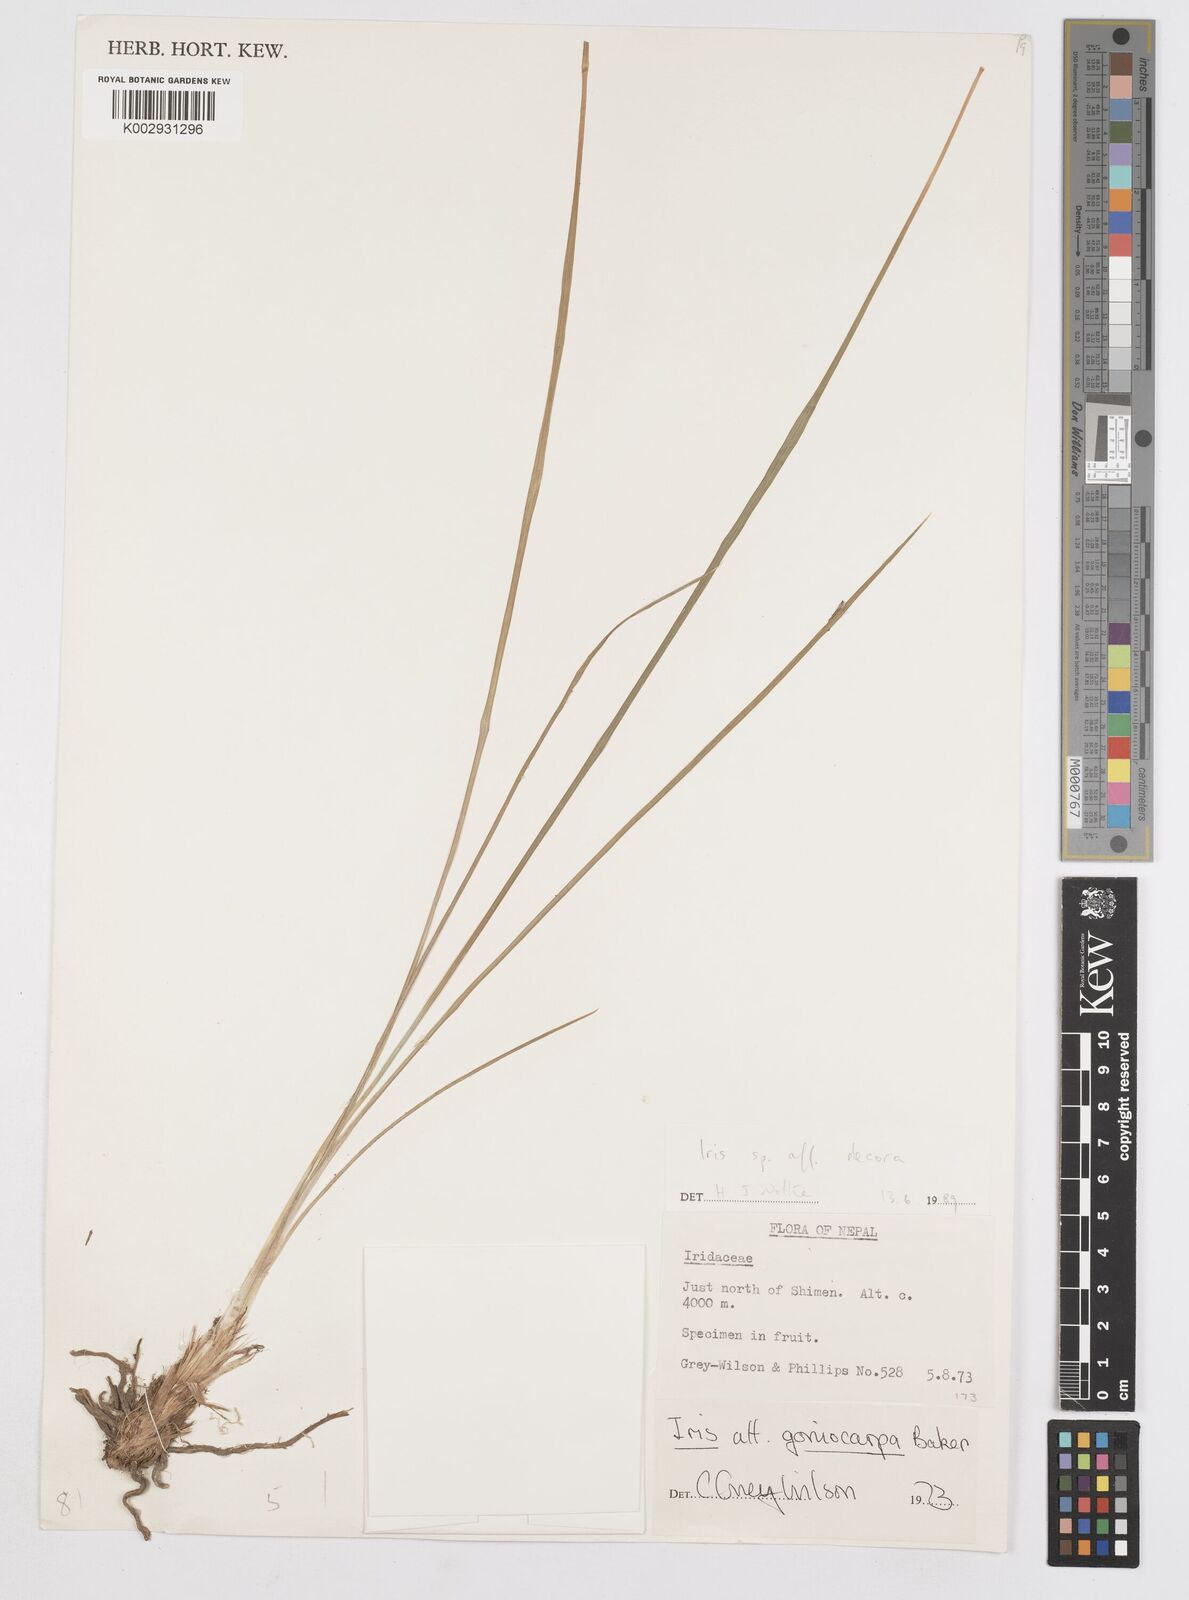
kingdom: Plantae
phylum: Tracheophyta
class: Liliopsida
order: Asparagales
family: Iridaceae
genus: Iris
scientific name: Iris decora
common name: Nepal iris
